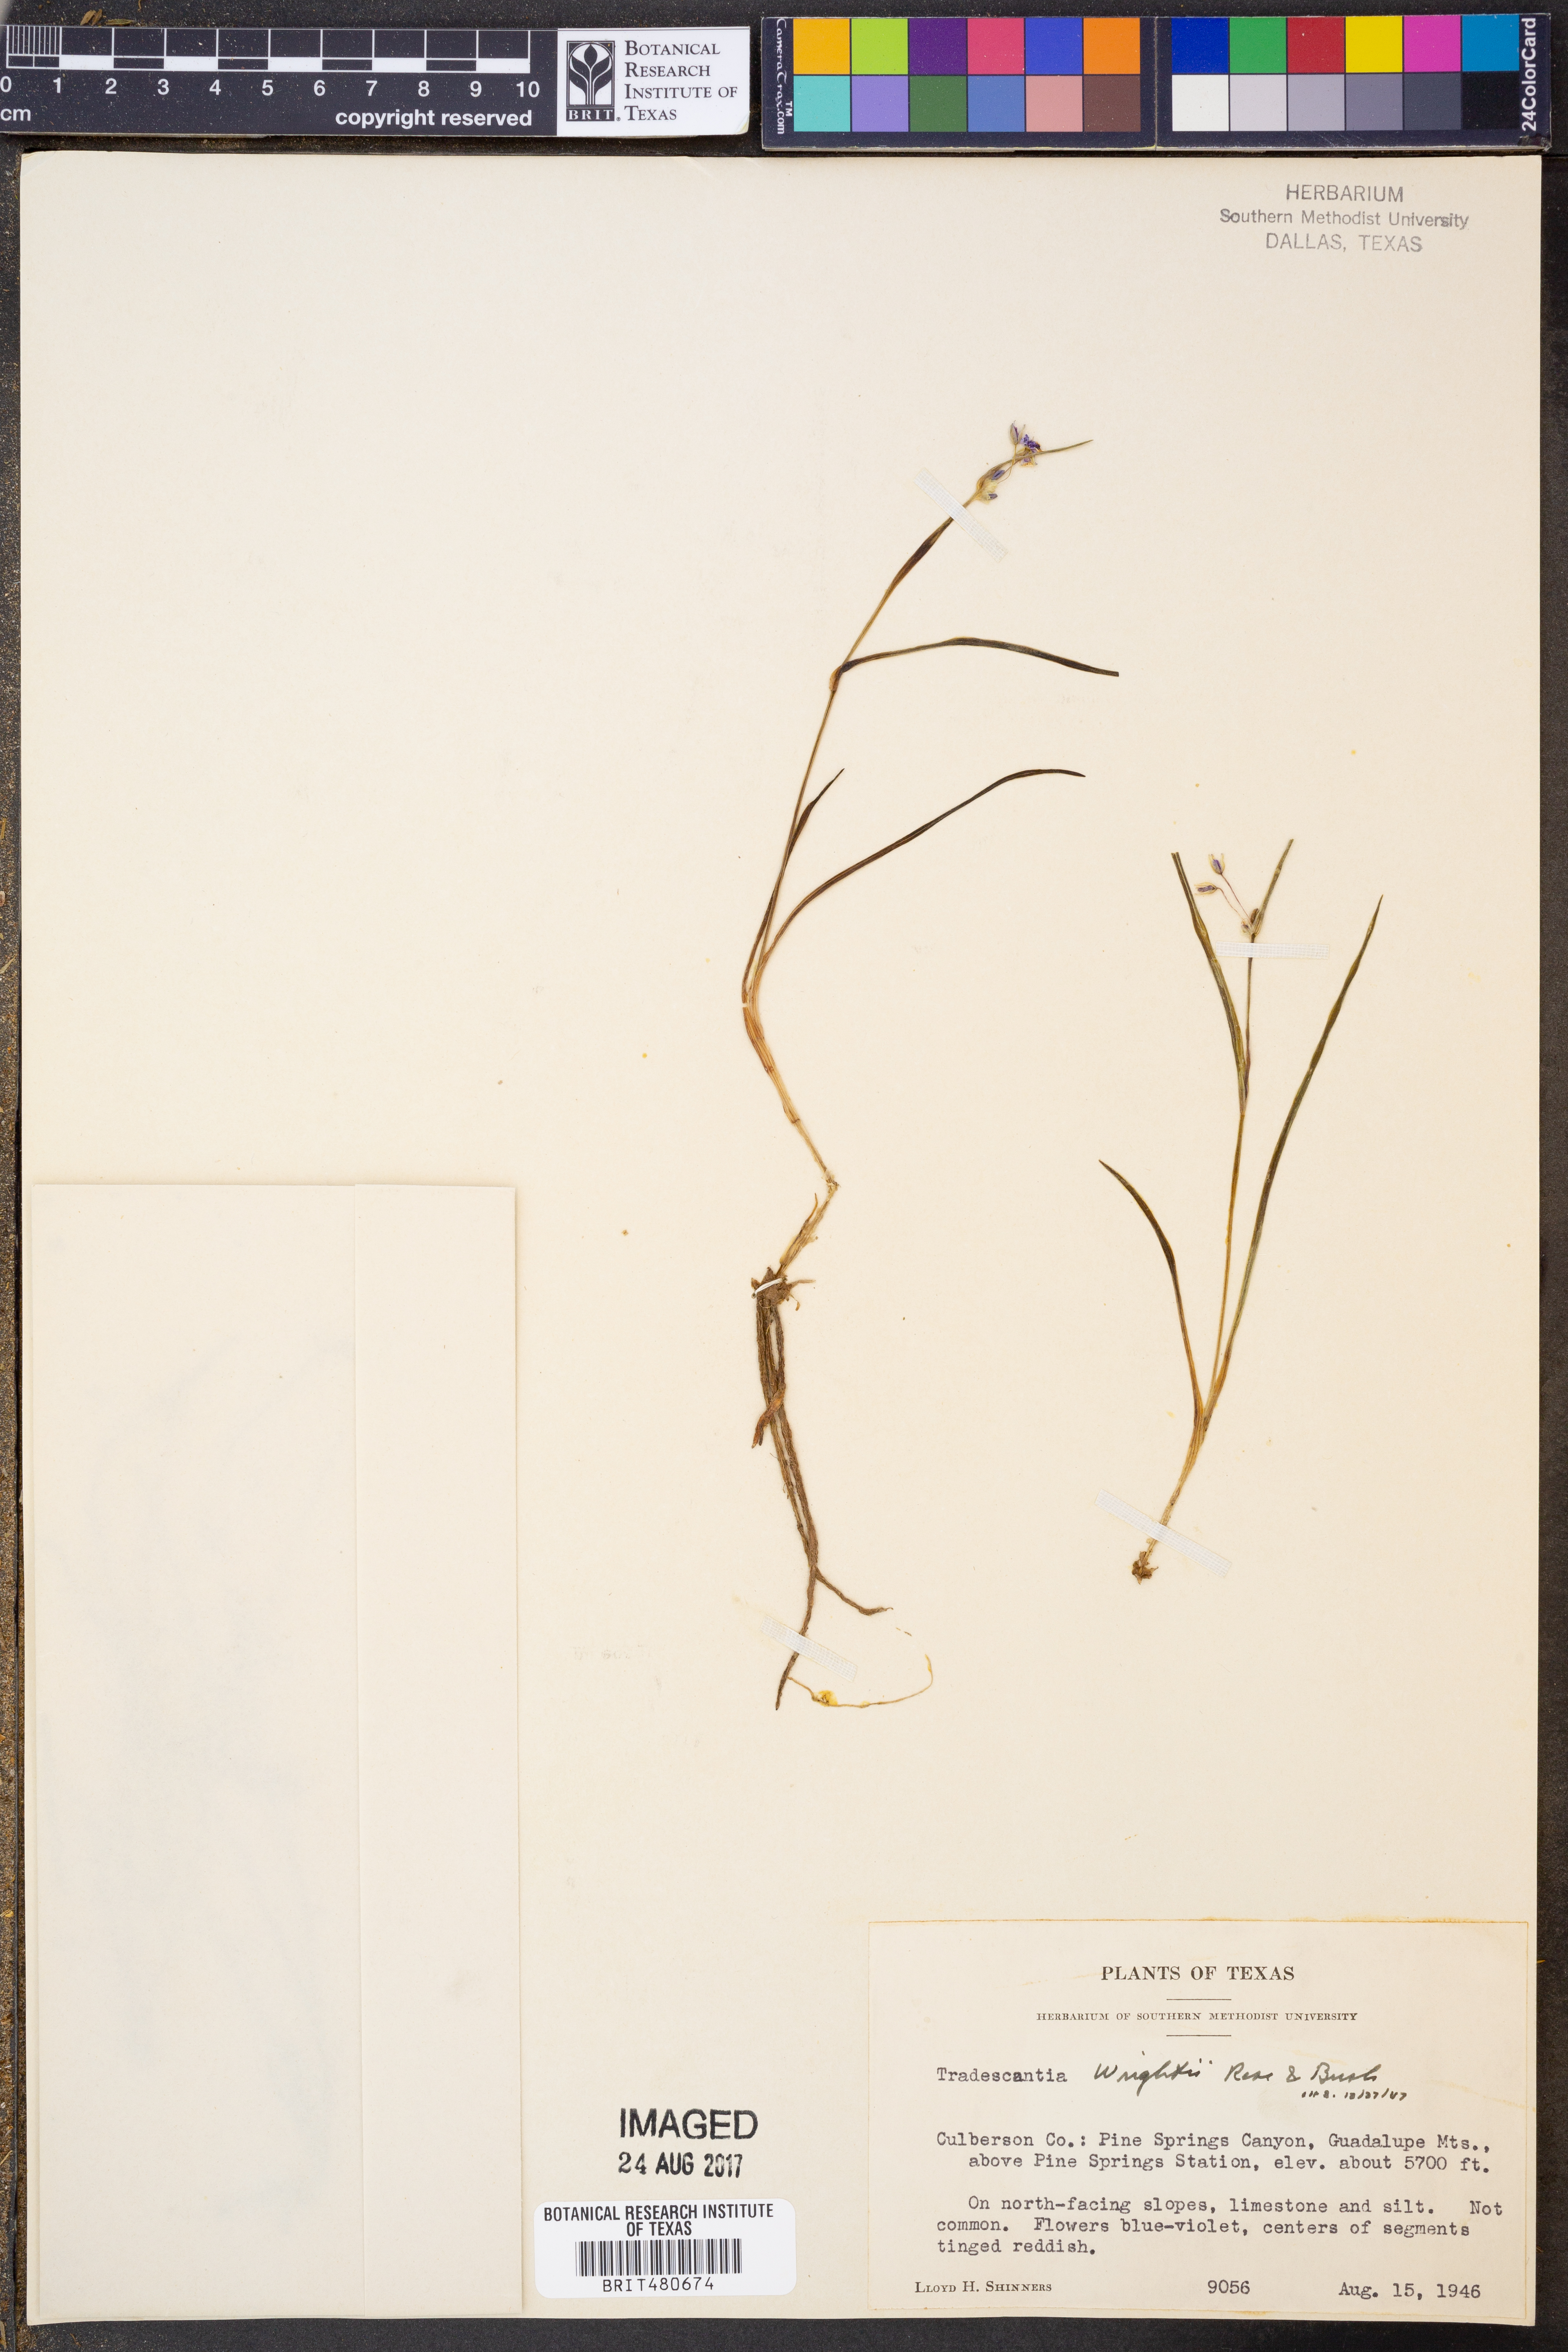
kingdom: Plantae
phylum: Tracheophyta
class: Liliopsida
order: Commelinales
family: Commelinaceae
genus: Tradescantia
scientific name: Tradescantia wrightii
